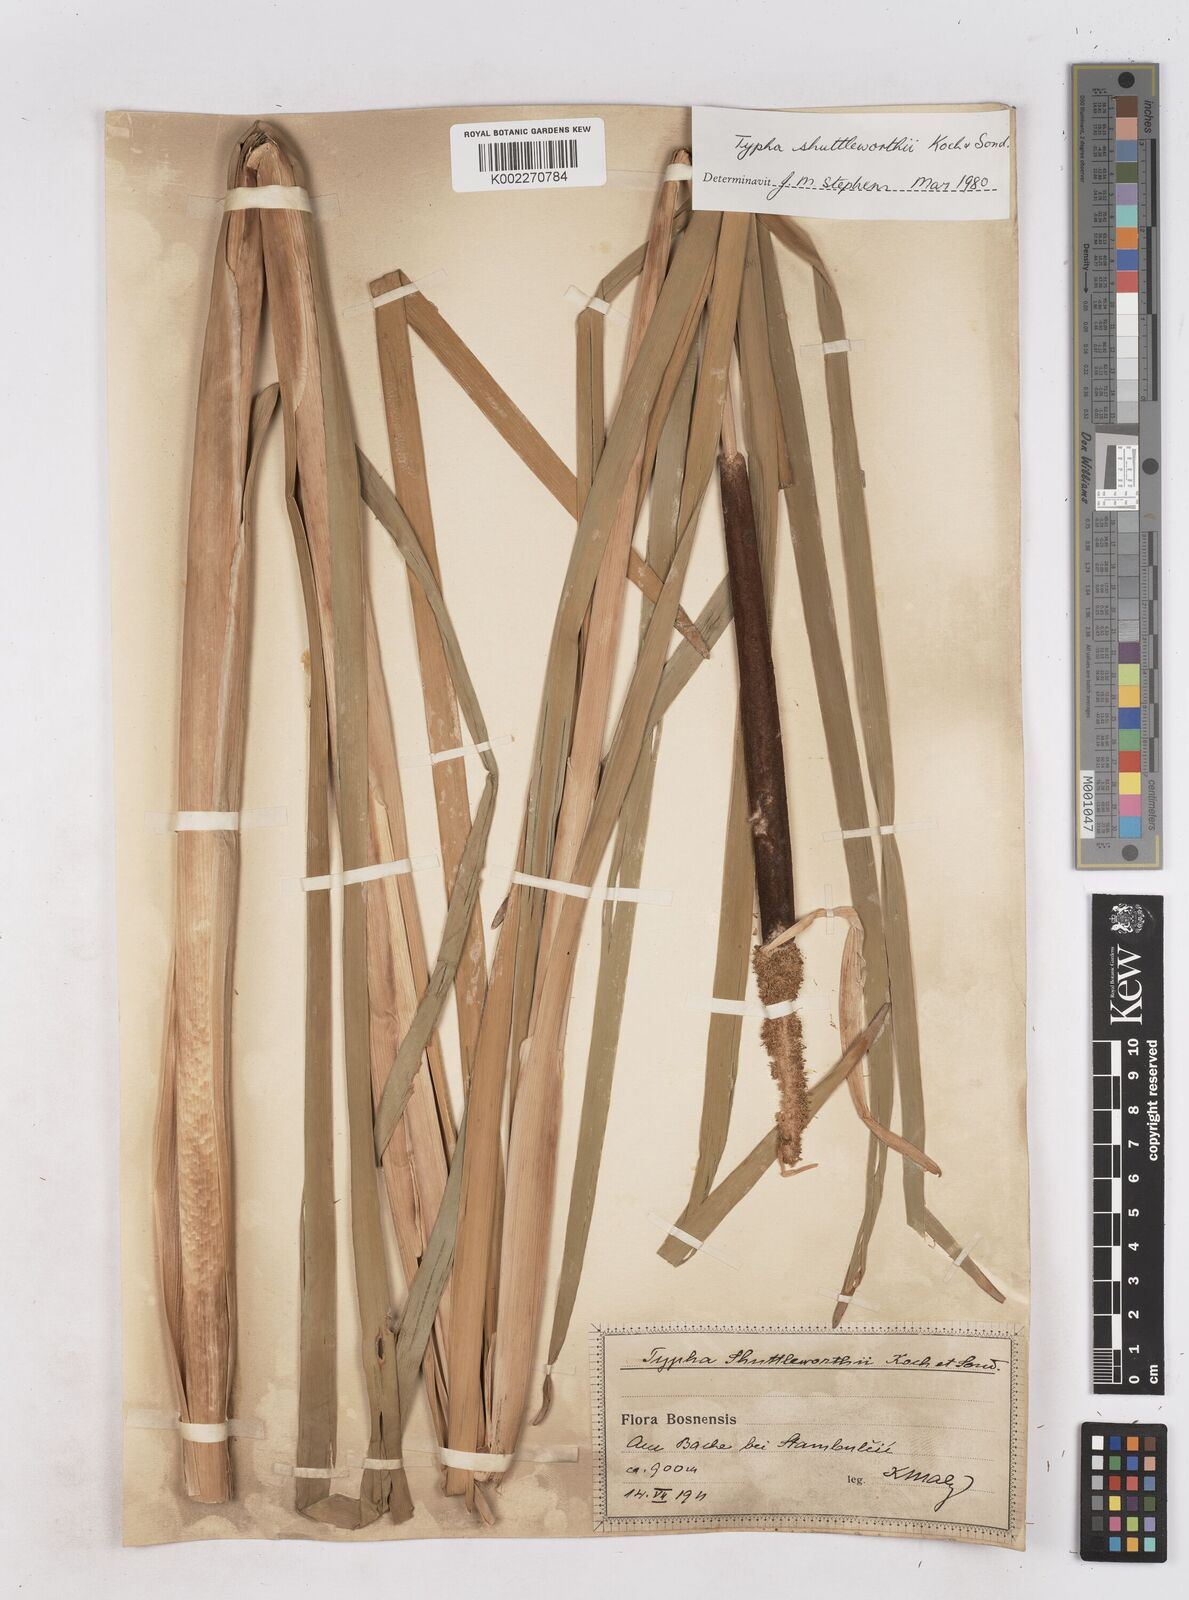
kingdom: Plantae
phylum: Tracheophyta
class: Liliopsida
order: Poales
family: Typhaceae
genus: Typha
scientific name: Typha shuttleworthii
